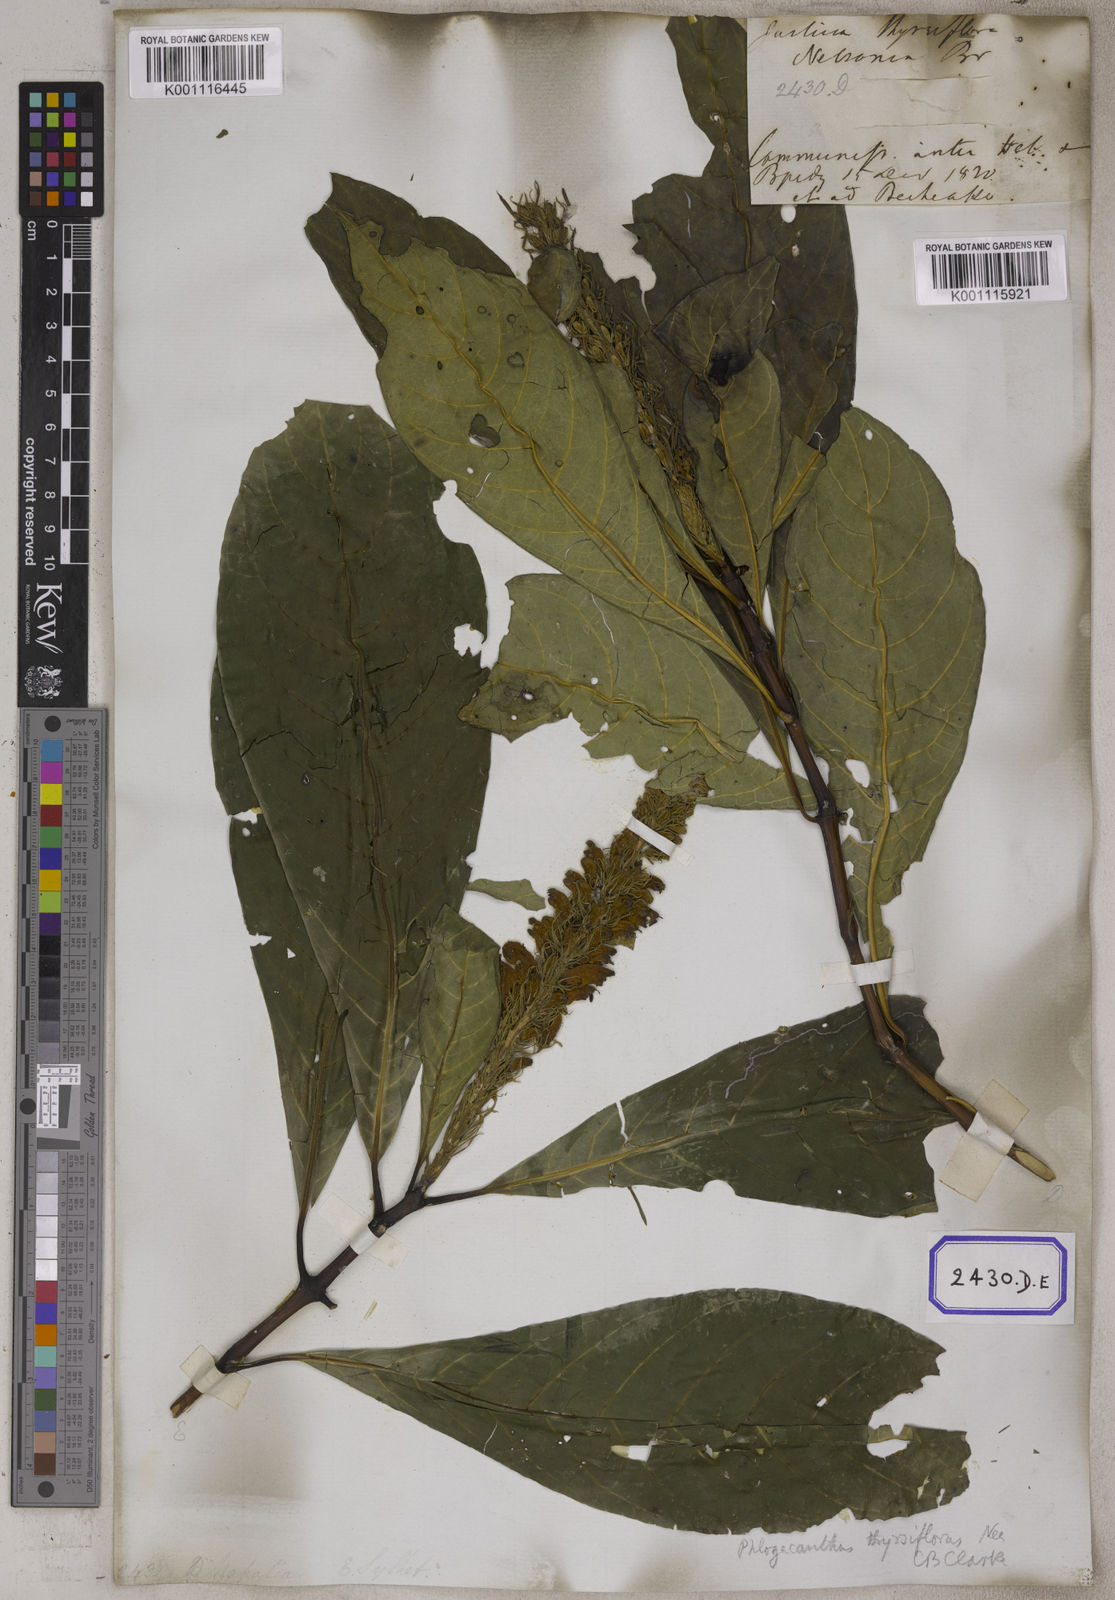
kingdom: Plantae
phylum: Tracheophyta
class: Magnoliopsida
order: Lamiales
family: Acanthaceae
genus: Justicia
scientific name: Justicia
